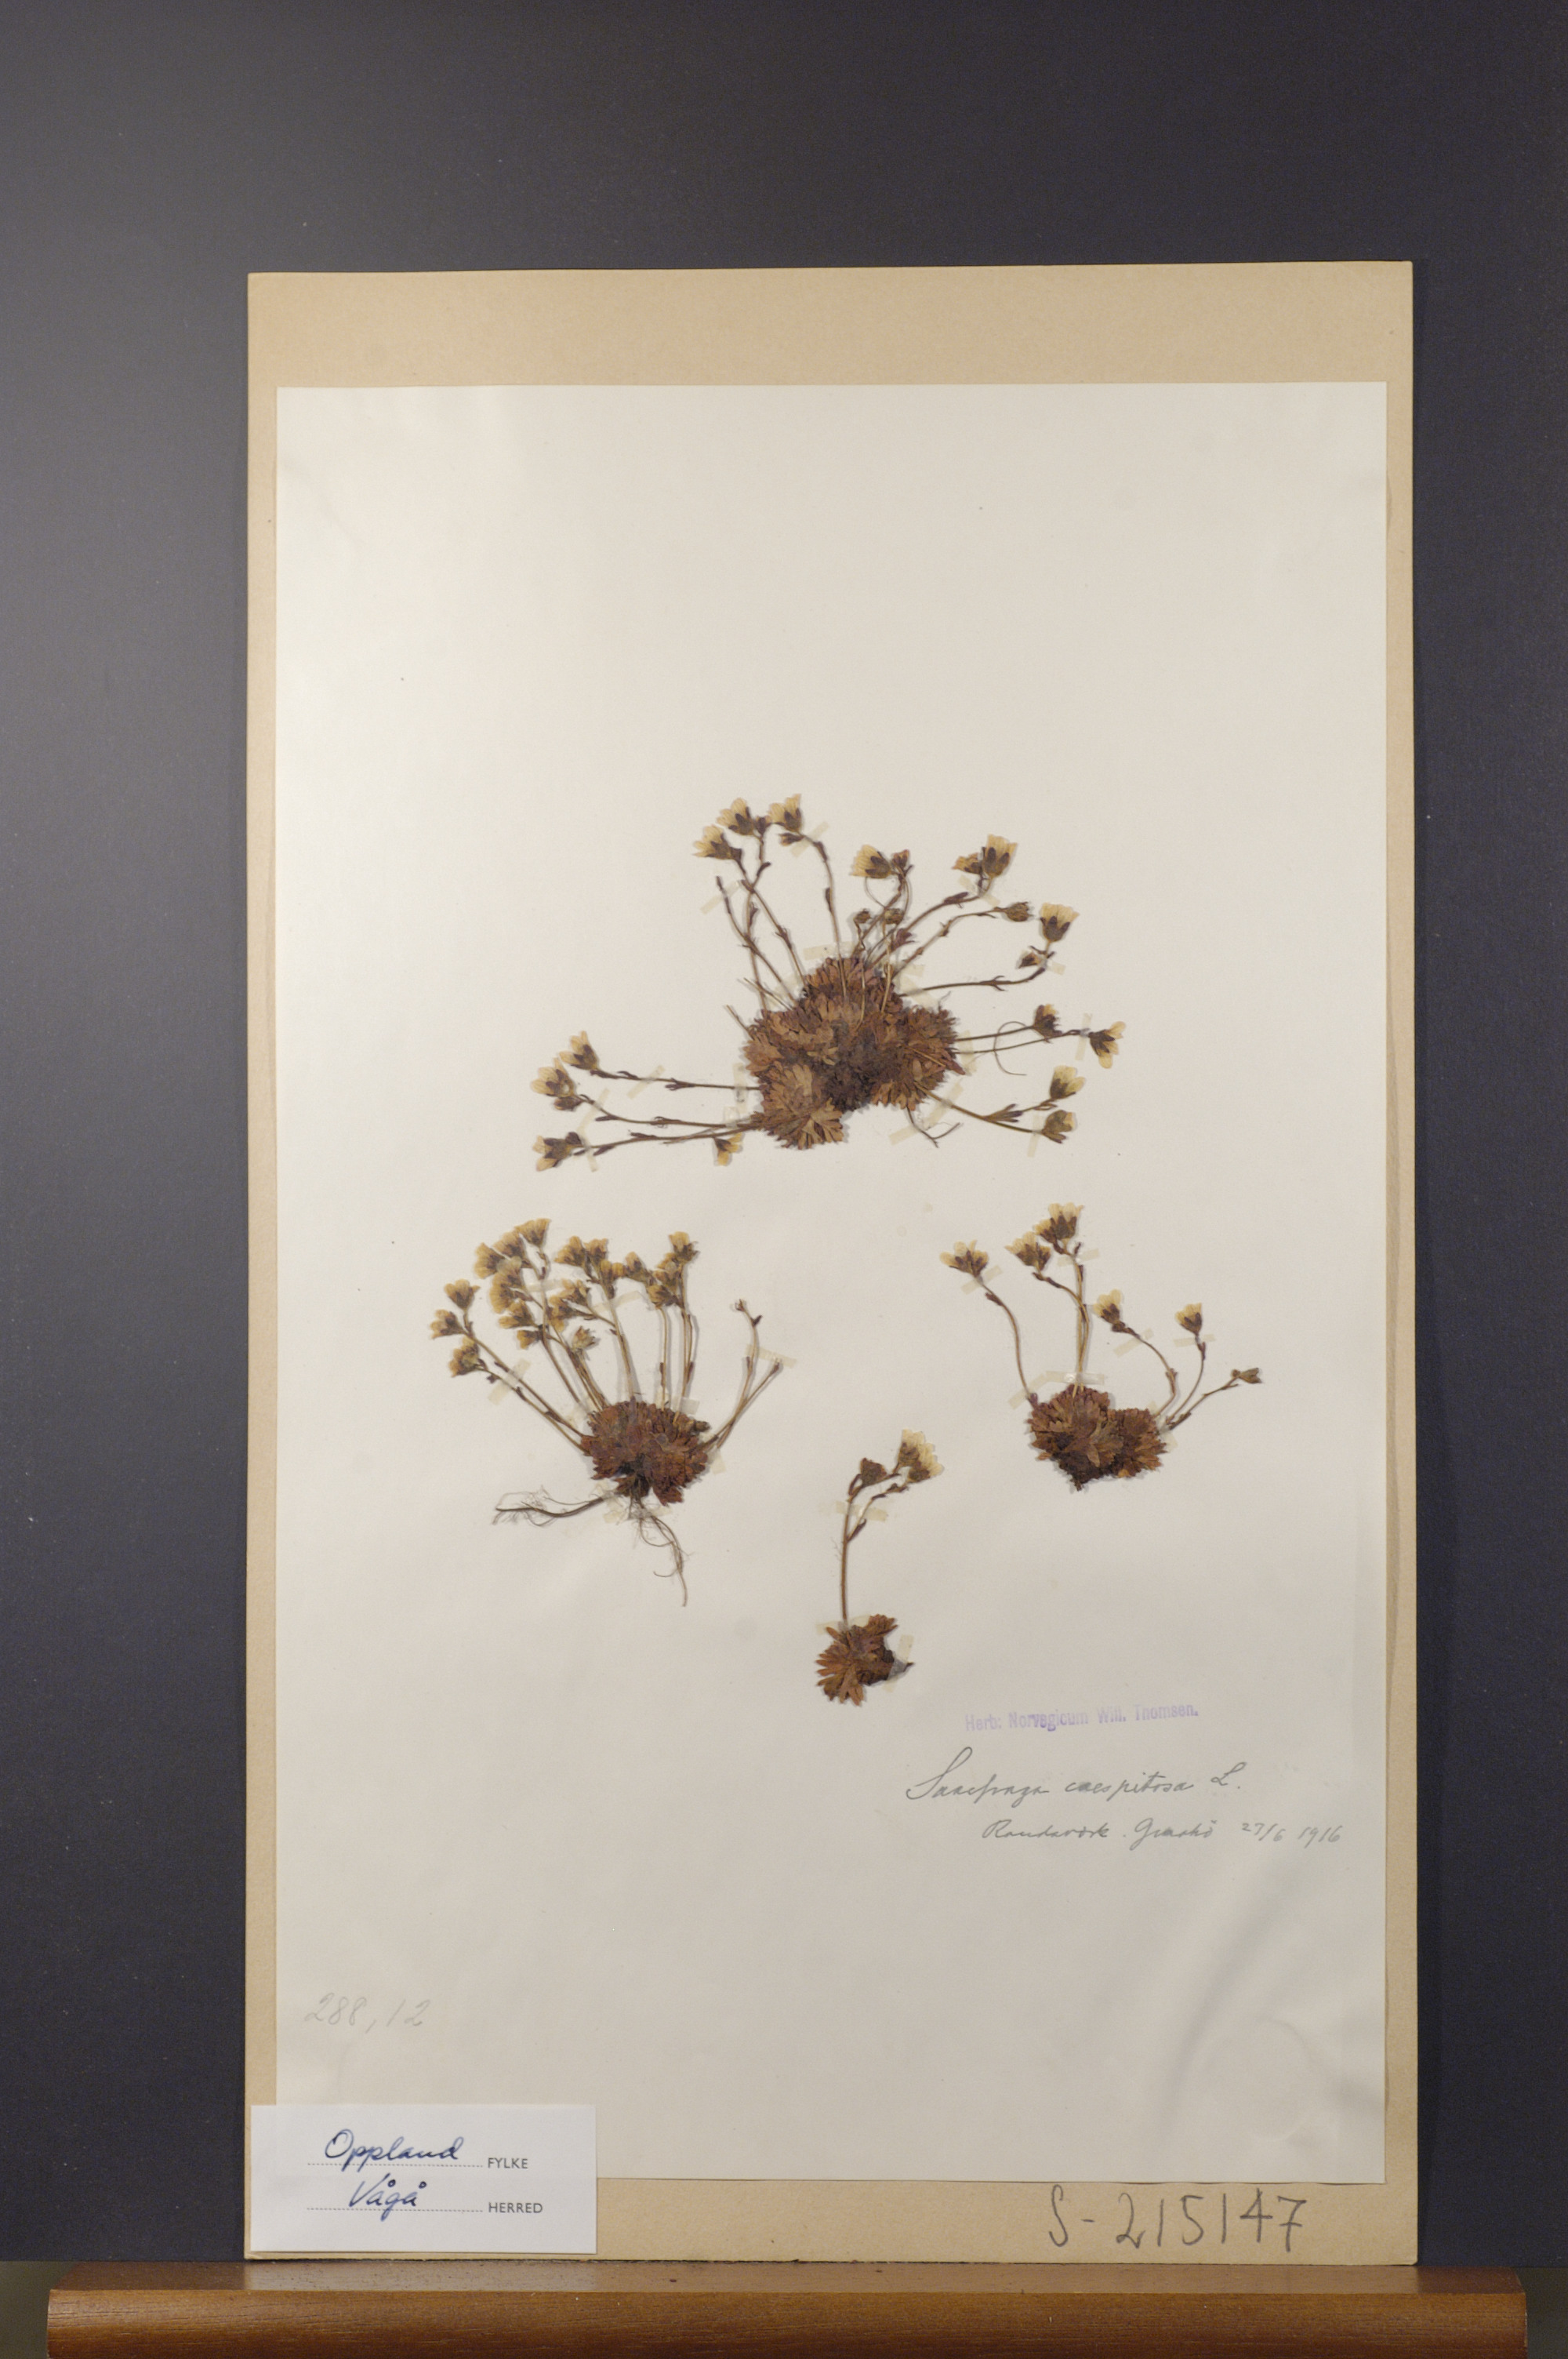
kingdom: Plantae
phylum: Tracheophyta
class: Magnoliopsida
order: Saxifragales
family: Saxifragaceae
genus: Saxifraga
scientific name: Saxifraga cespitosa
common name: Tufted saxifrage
